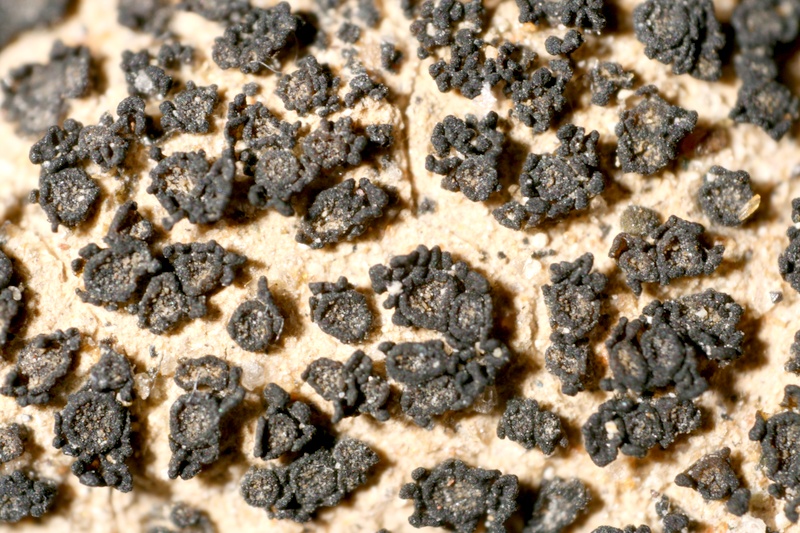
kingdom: Fungi
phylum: Ascomycota
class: Lecanoromycetes
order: Peltigerales
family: Collemataceae
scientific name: Collemataceae
